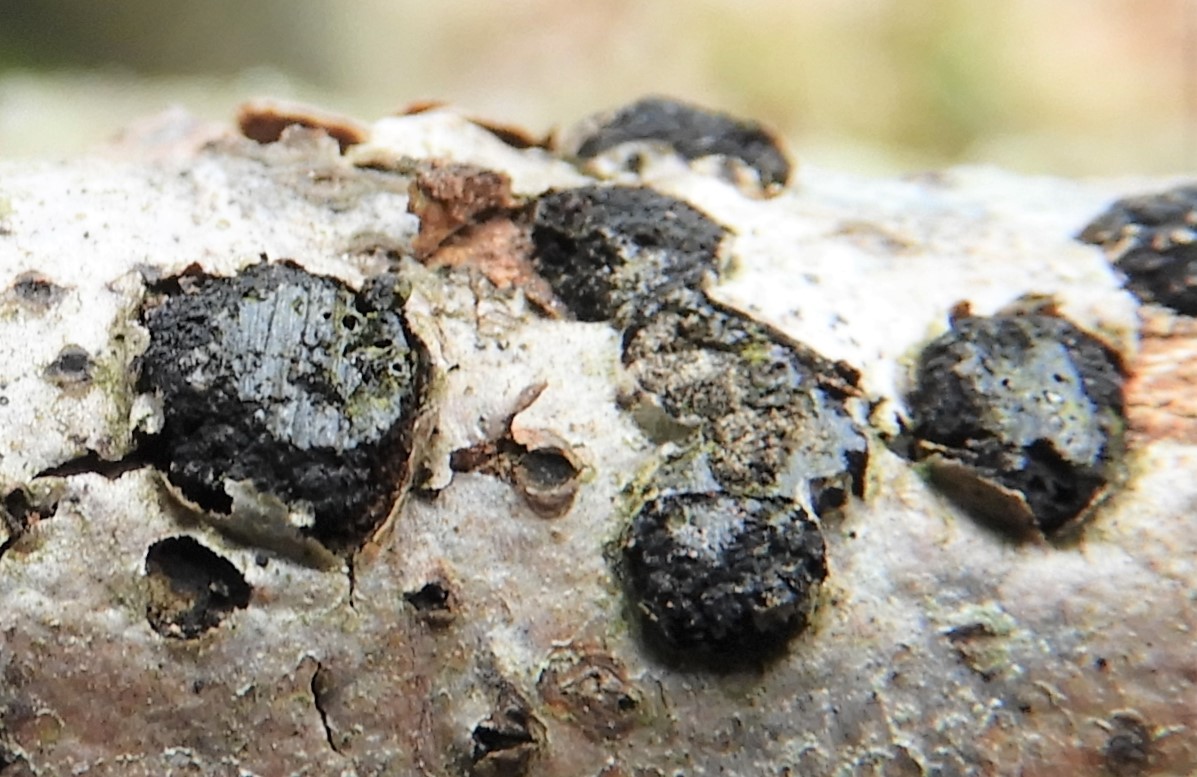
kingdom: Fungi
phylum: Ascomycota
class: Sordariomycetes
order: Xylariales
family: Diatrypaceae
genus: Diatrypella
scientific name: Diatrypella quercina
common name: ege-kulskorpe
